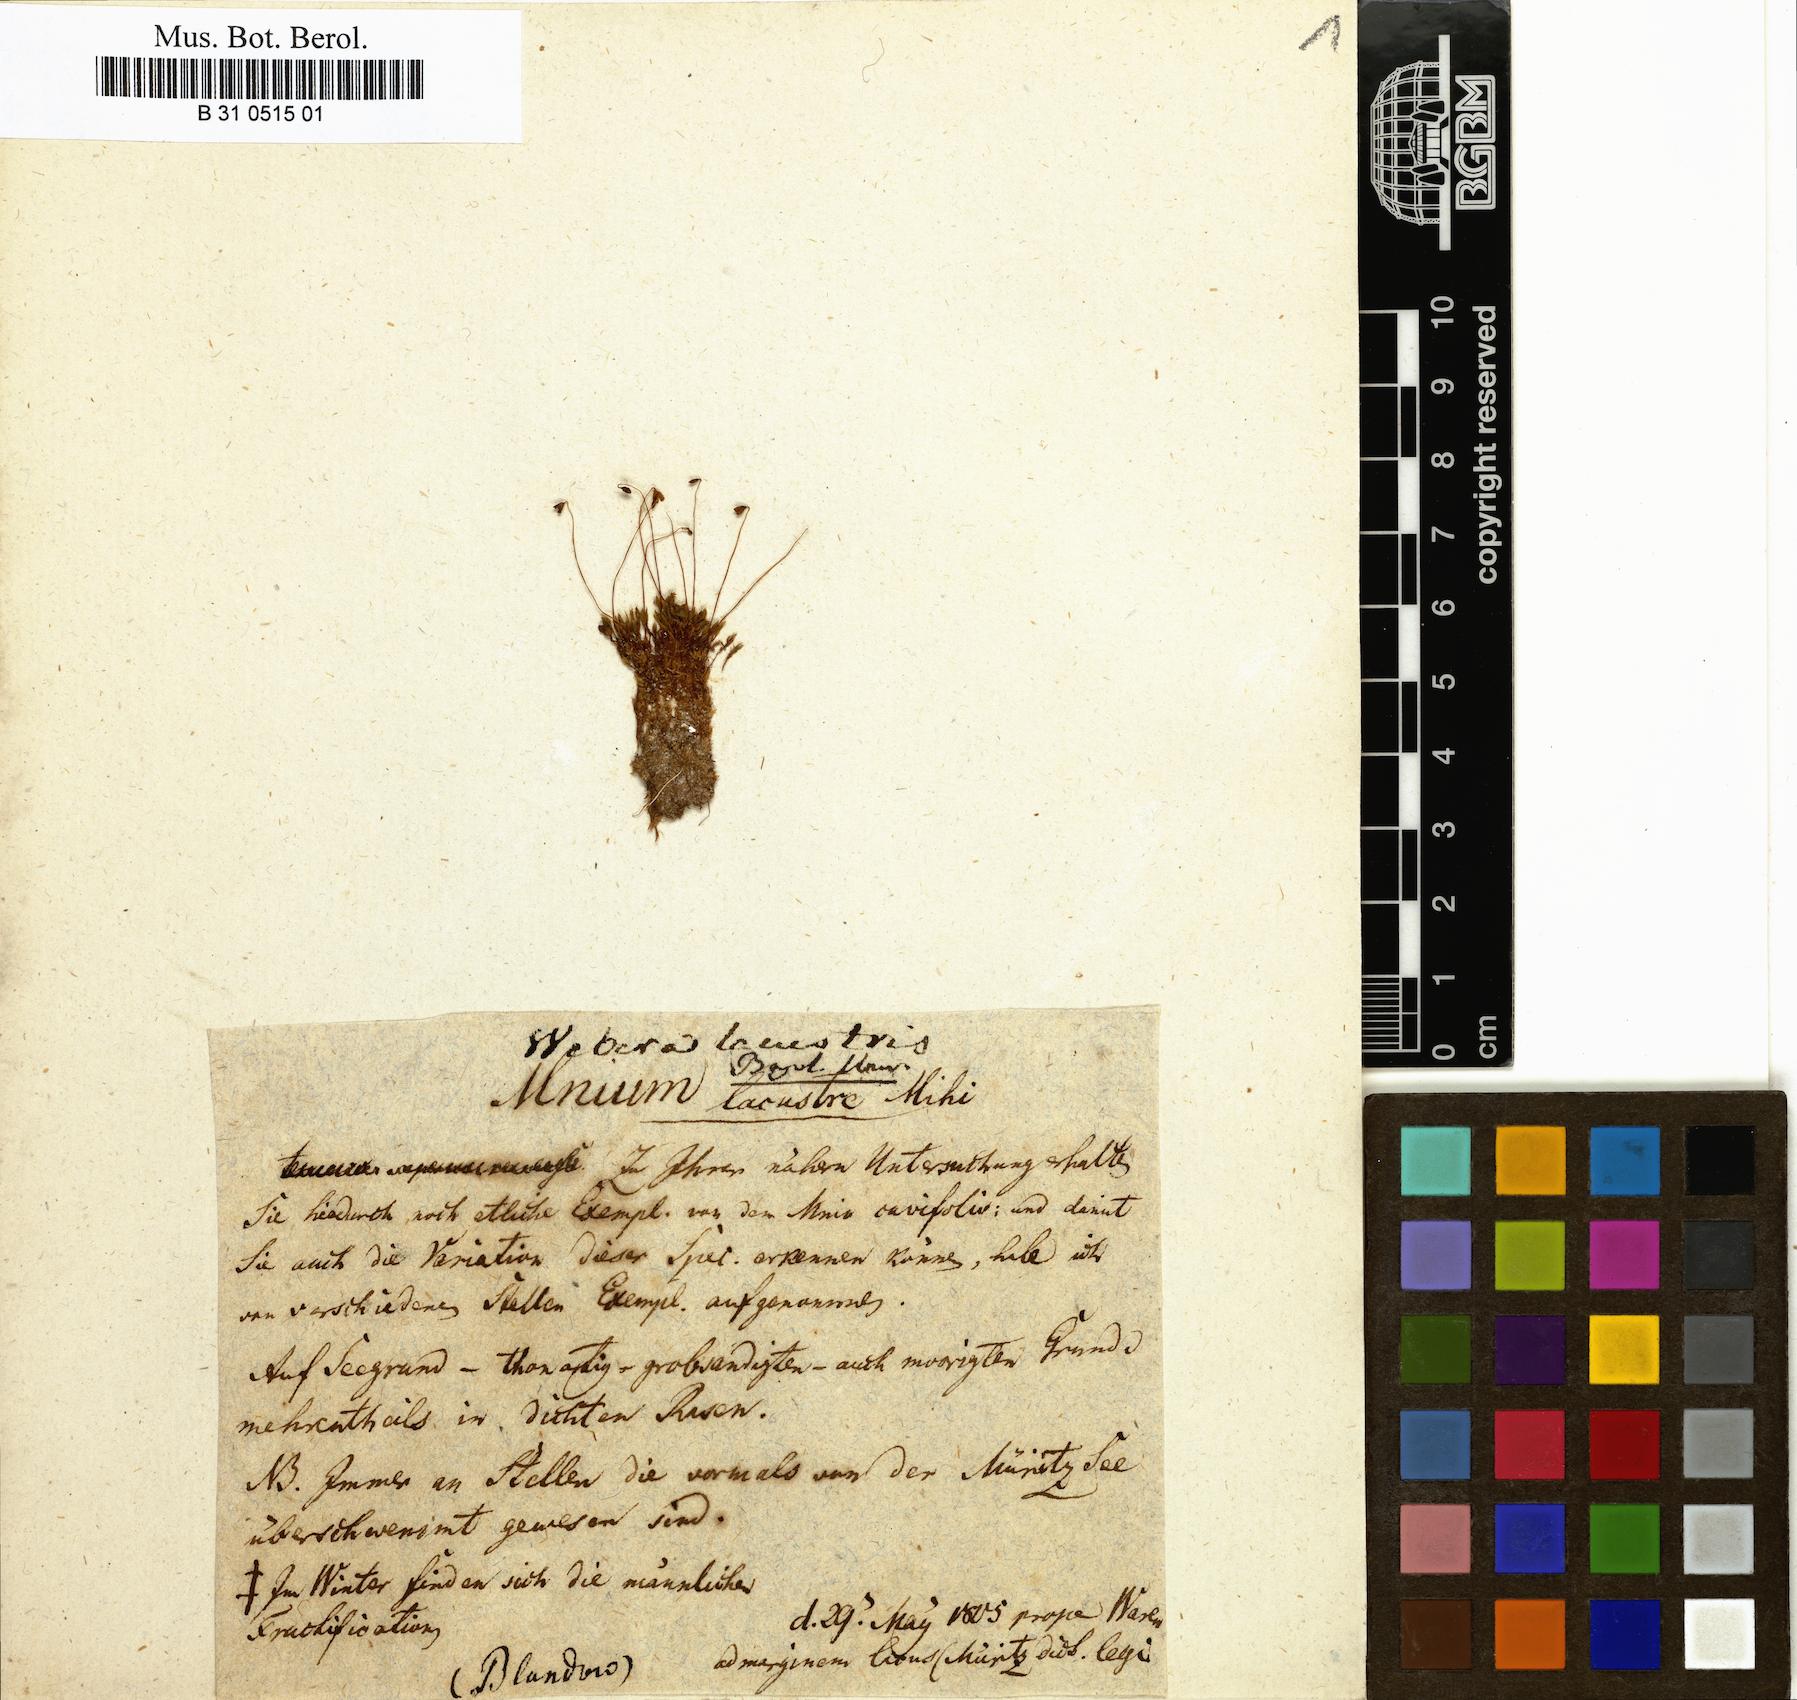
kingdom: Plantae
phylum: Bryophyta
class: Bryopsida
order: Bryales
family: Bryaceae
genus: Ptychostomum
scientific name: Ptychostomum knowltonii
